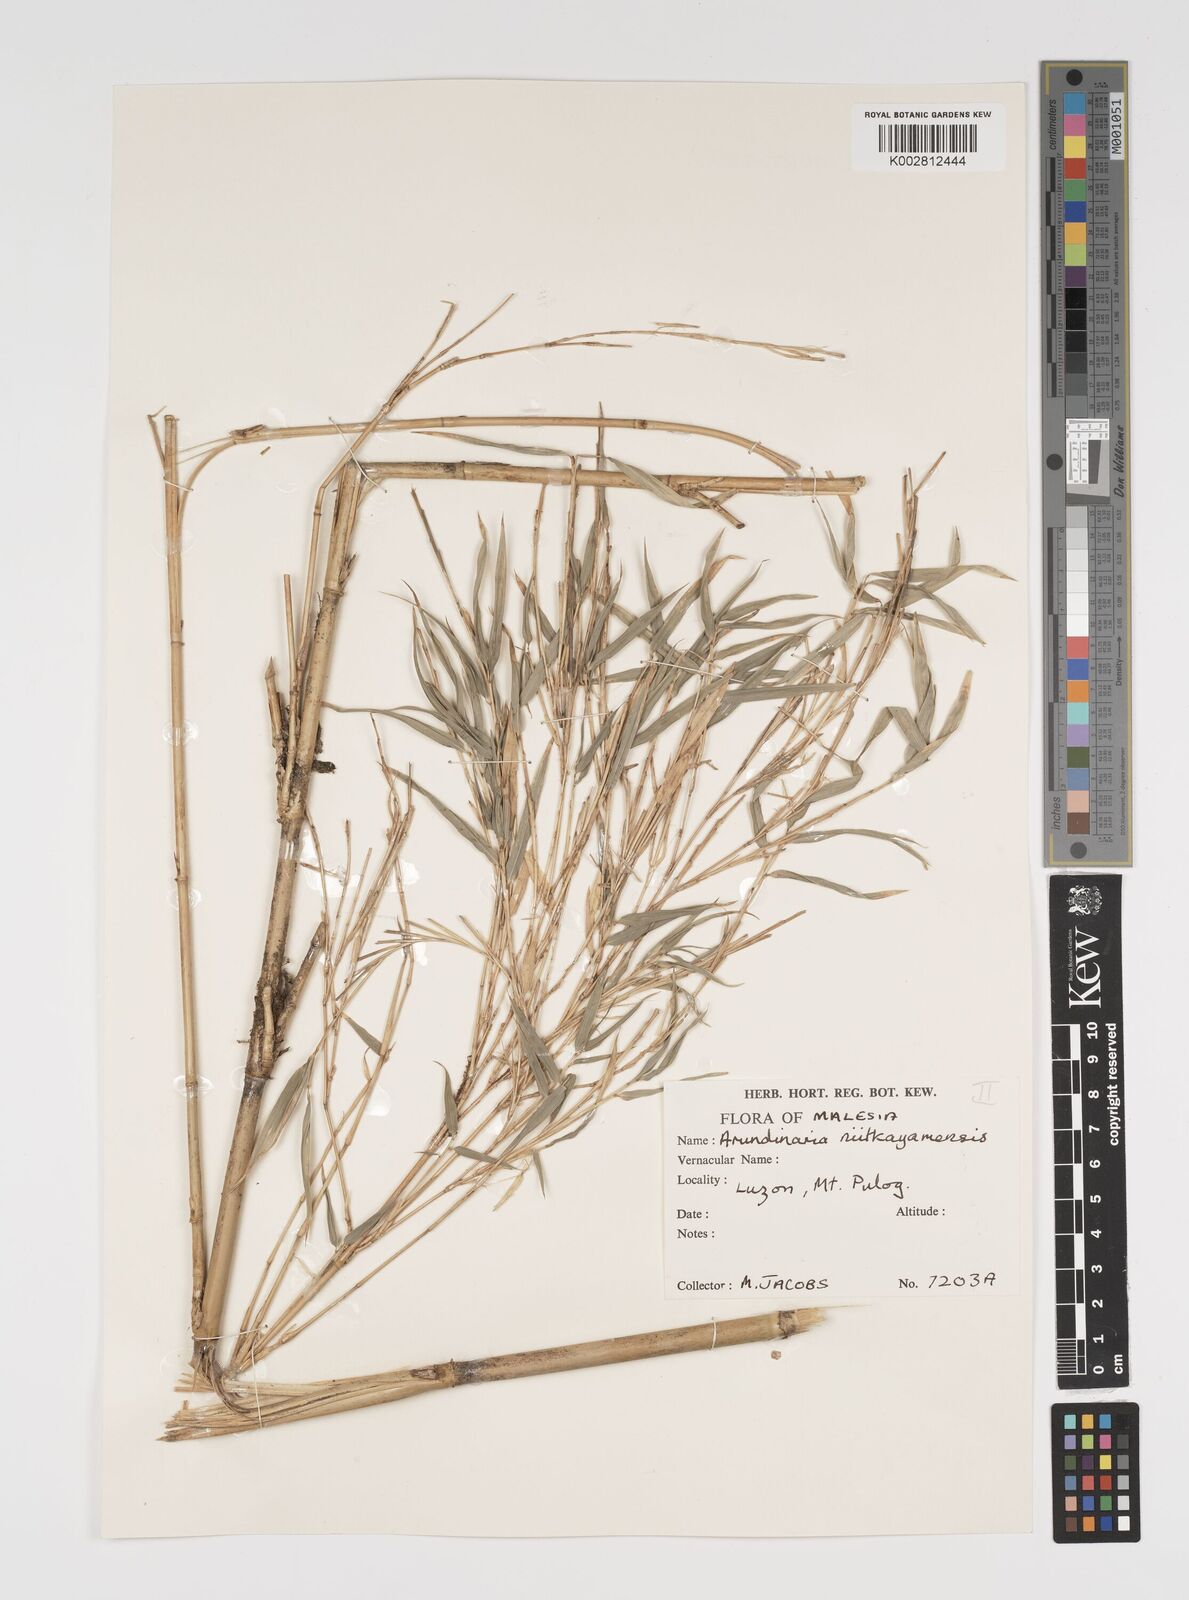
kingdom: Plantae
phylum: Tracheophyta
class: Liliopsida
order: Poales
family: Poaceae
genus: Yushania
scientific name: Yushania niitakayamensis
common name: Yushan cane
